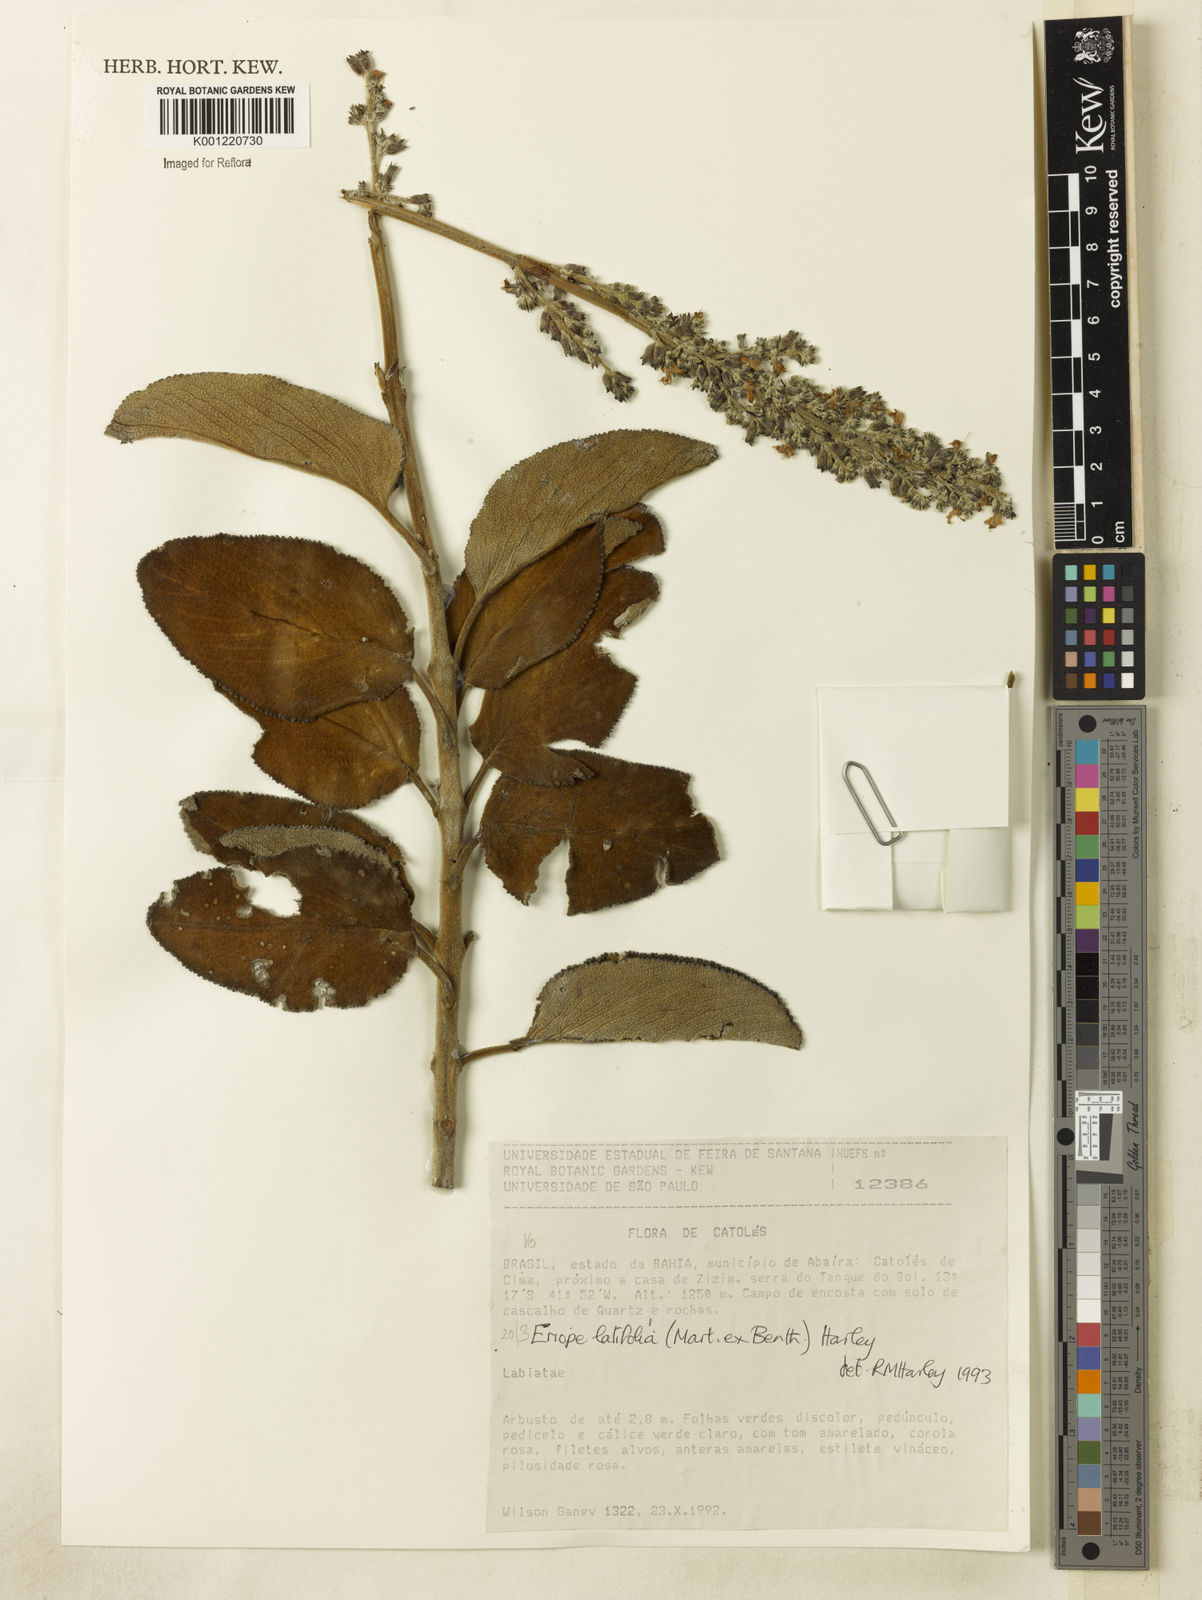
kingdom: Plantae
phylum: Tracheophyta
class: Magnoliopsida
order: Lamiales
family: Lamiaceae
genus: Eriope
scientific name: Eriope latifolia
